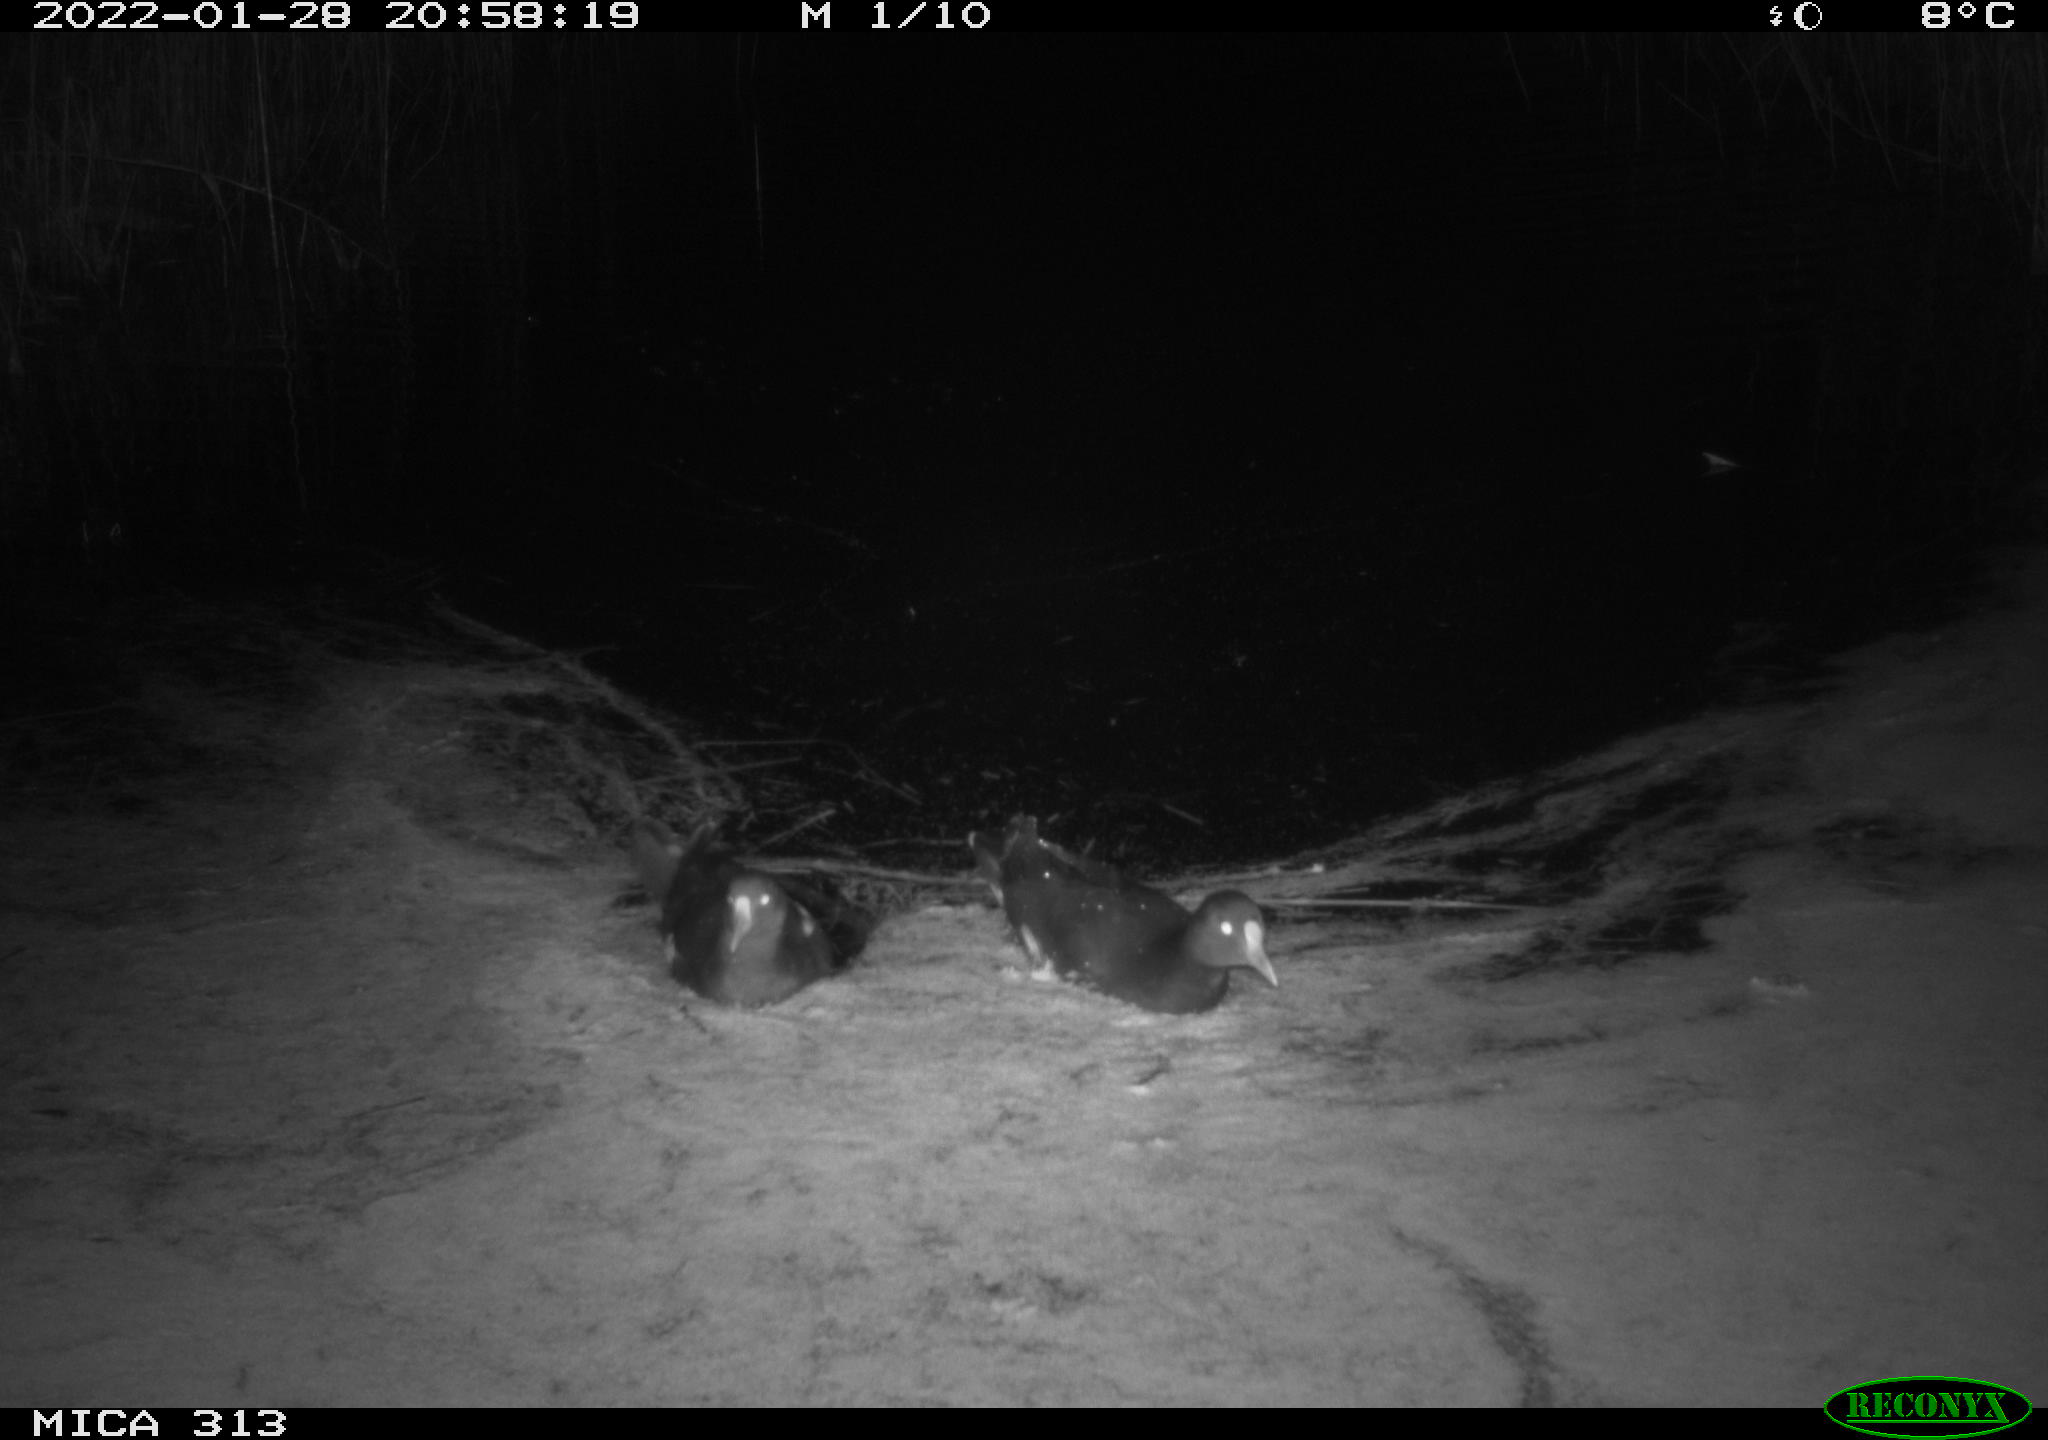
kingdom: Animalia
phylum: Chordata
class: Aves
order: Gruiformes
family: Rallidae
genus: Gallinula
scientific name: Gallinula chloropus
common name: Common moorhen
